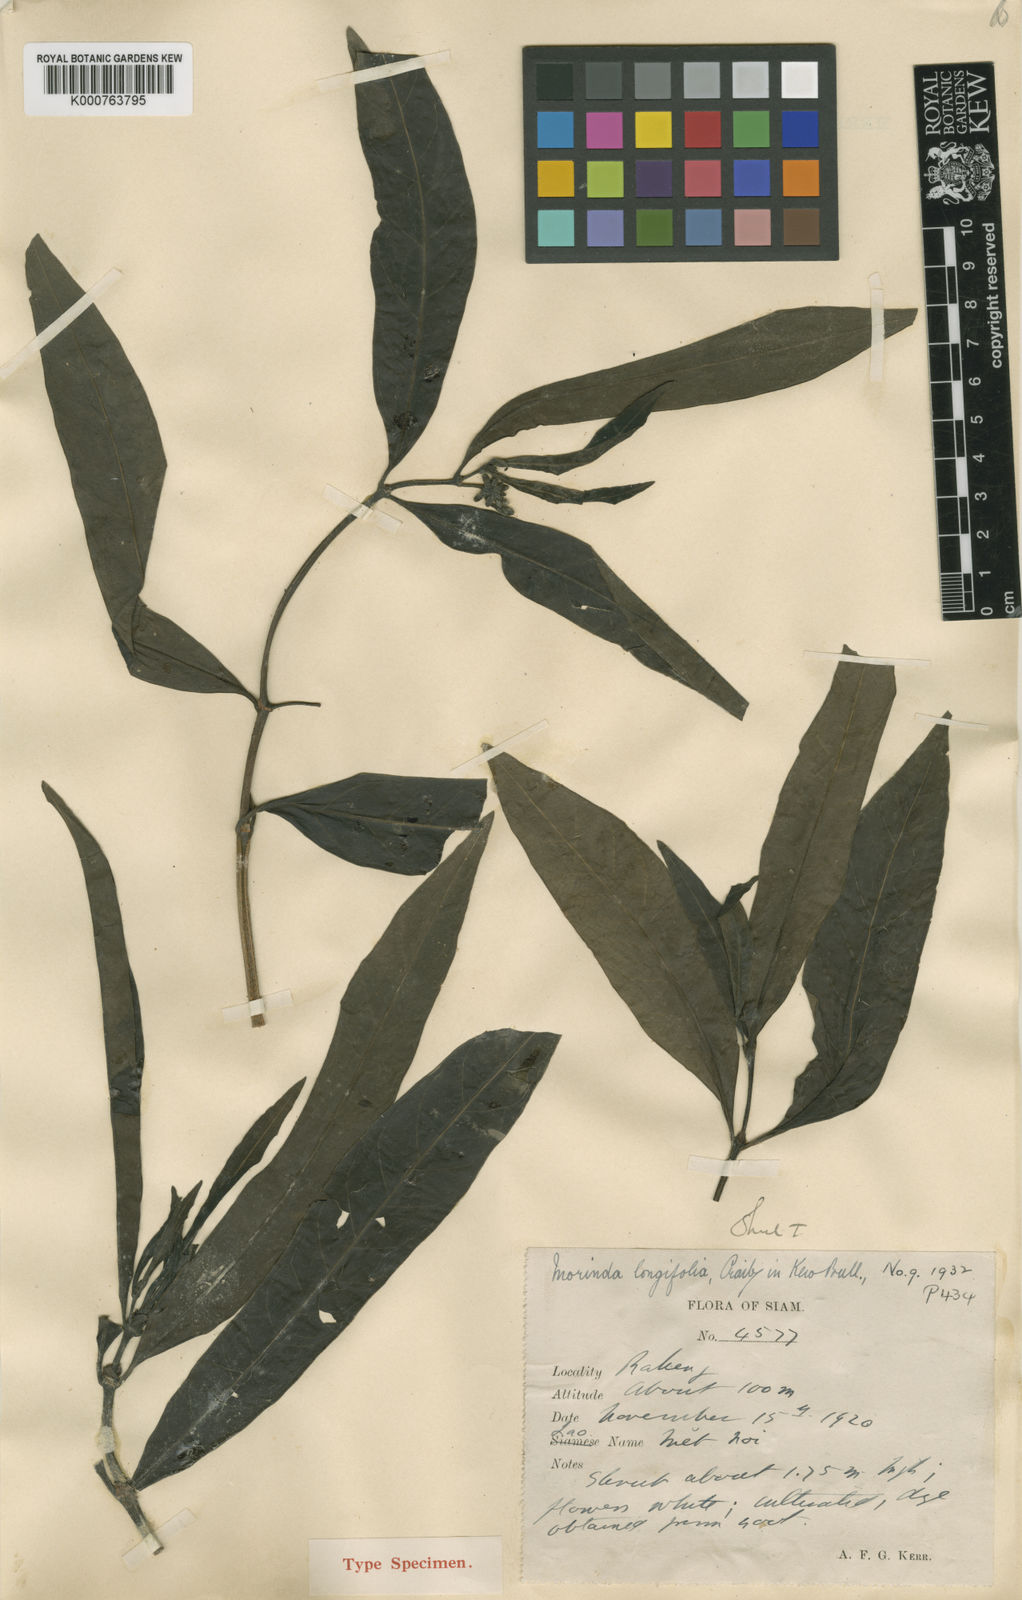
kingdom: Plantae
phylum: Tracheophyta
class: Magnoliopsida
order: Gentianales
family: Rubiaceae
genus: Morinda
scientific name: Morinda persicifolia
